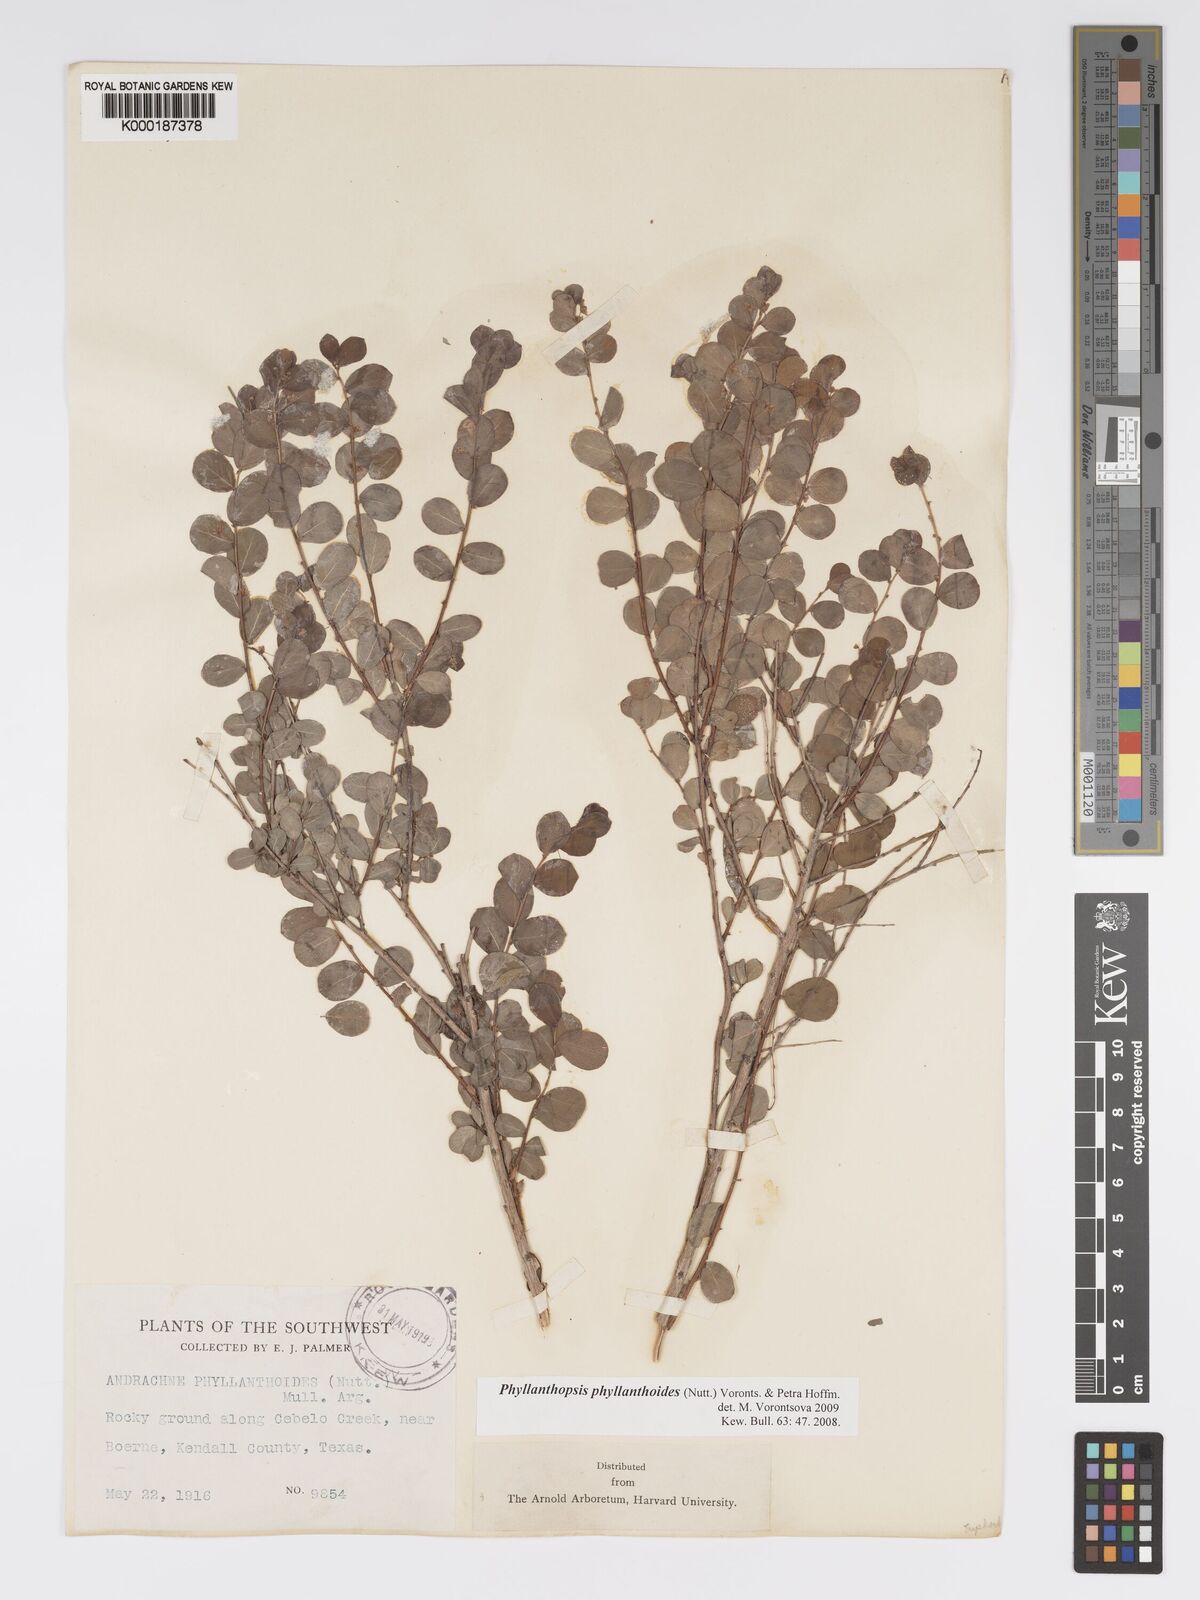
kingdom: Plantae
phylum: Tracheophyta
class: Magnoliopsida
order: Malpighiales
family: Phyllanthaceae
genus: Andrachne
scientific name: Andrachne
